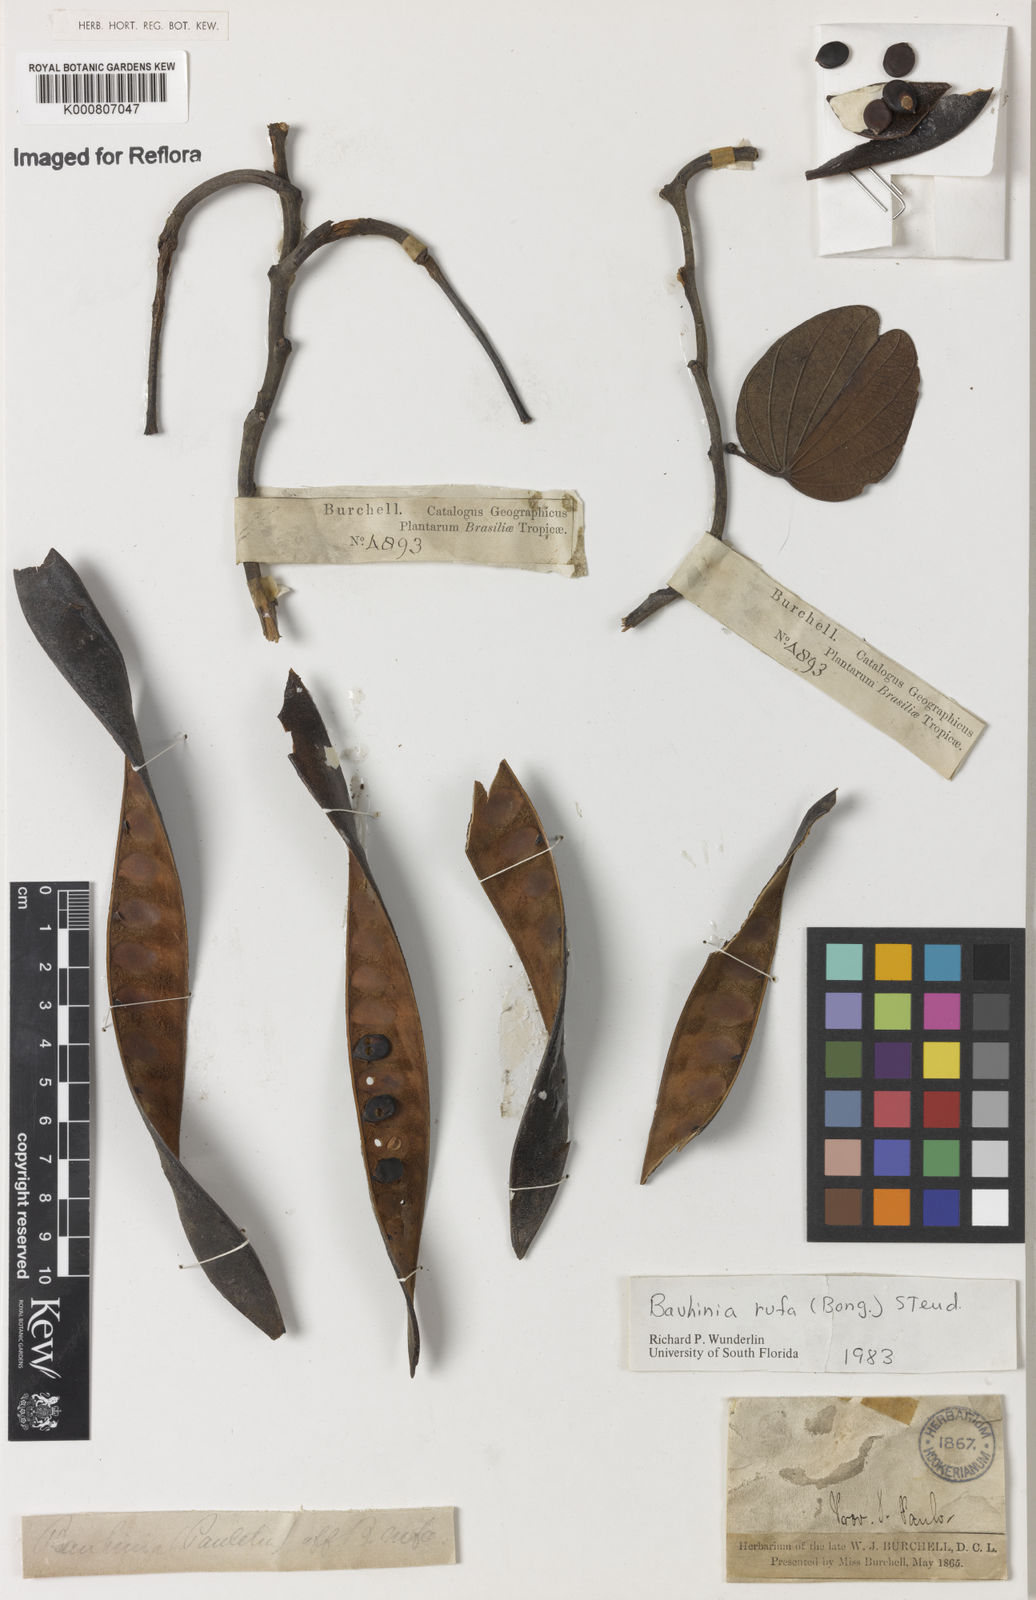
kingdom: Plantae
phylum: Tracheophyta
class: Magnoliopsida
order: Fabales
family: Fabaceae
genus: Bauhinia
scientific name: Bauhinia rufa
